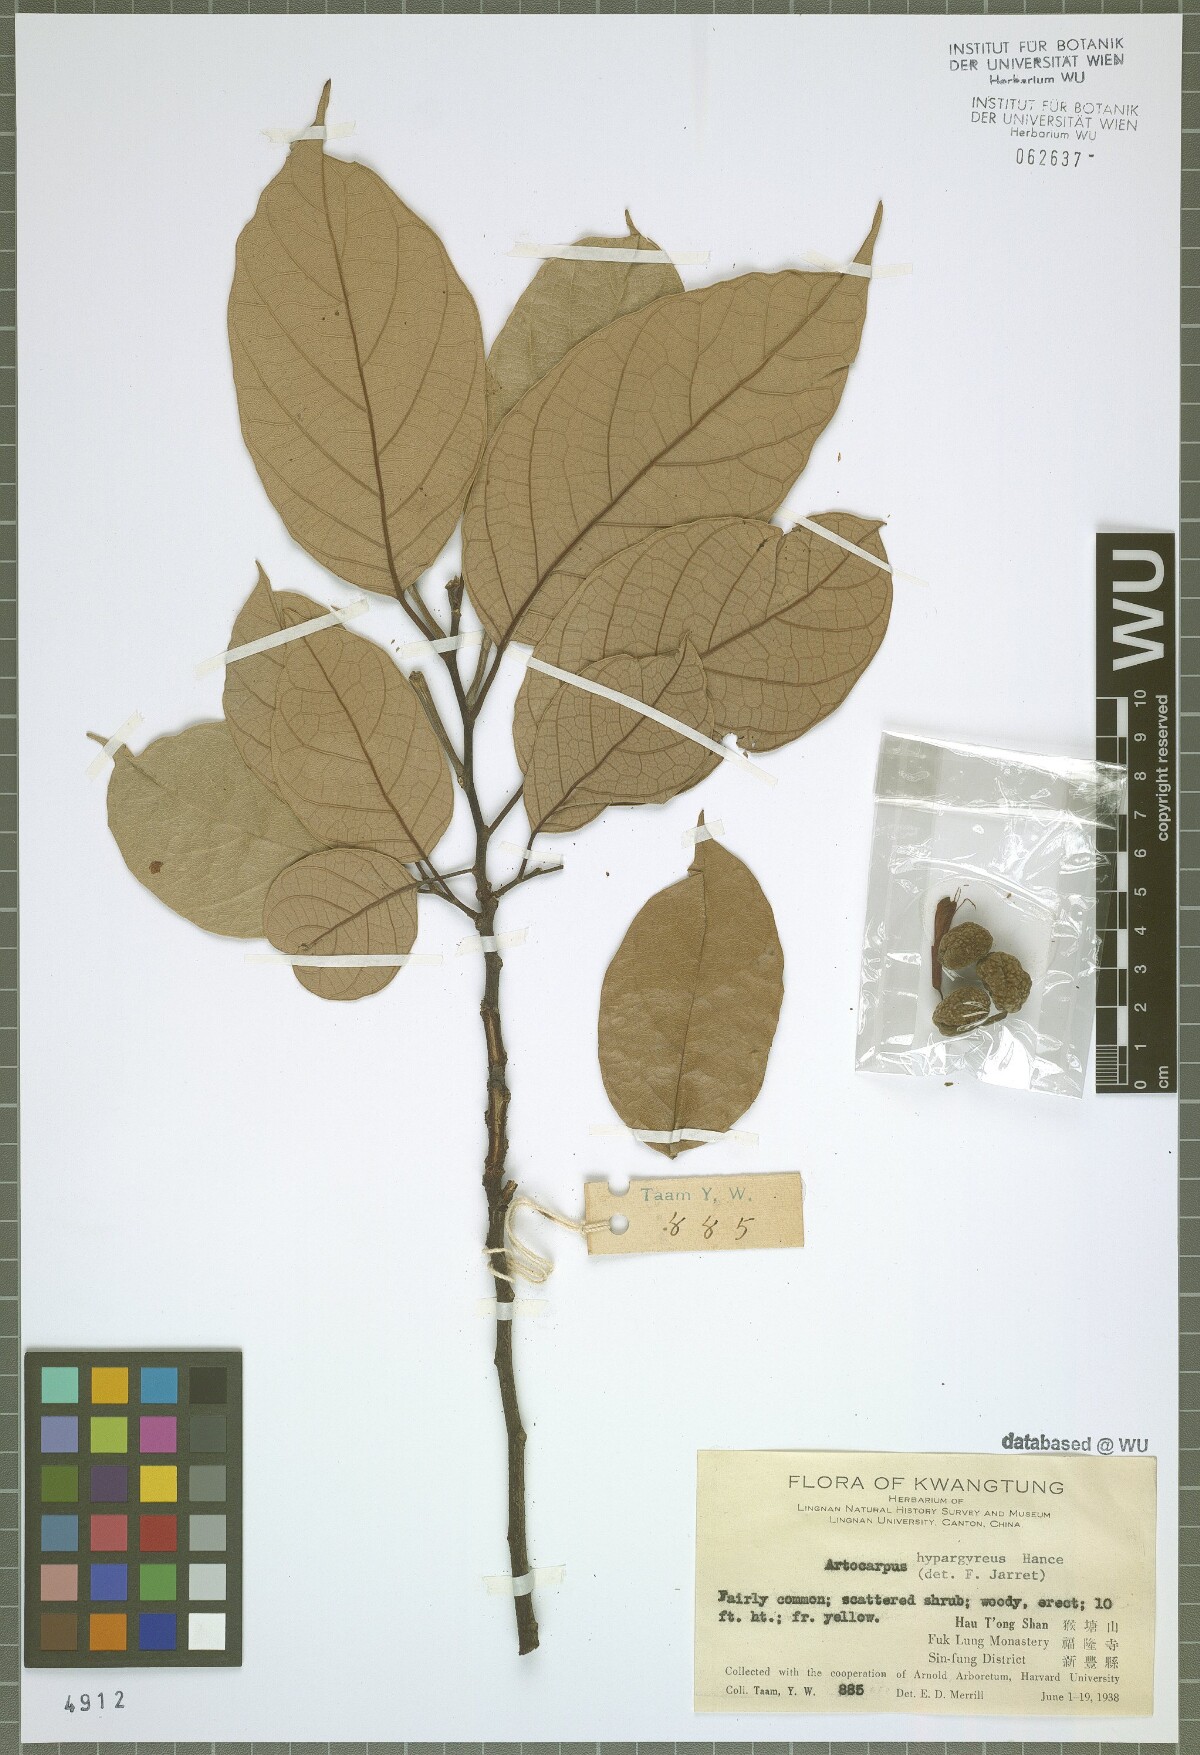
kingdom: Plantae
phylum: Tracheophyta
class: Magnoliopsida
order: Rosales
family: Moraceae
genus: Artocarpus
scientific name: Artocarpus hypargyreus
